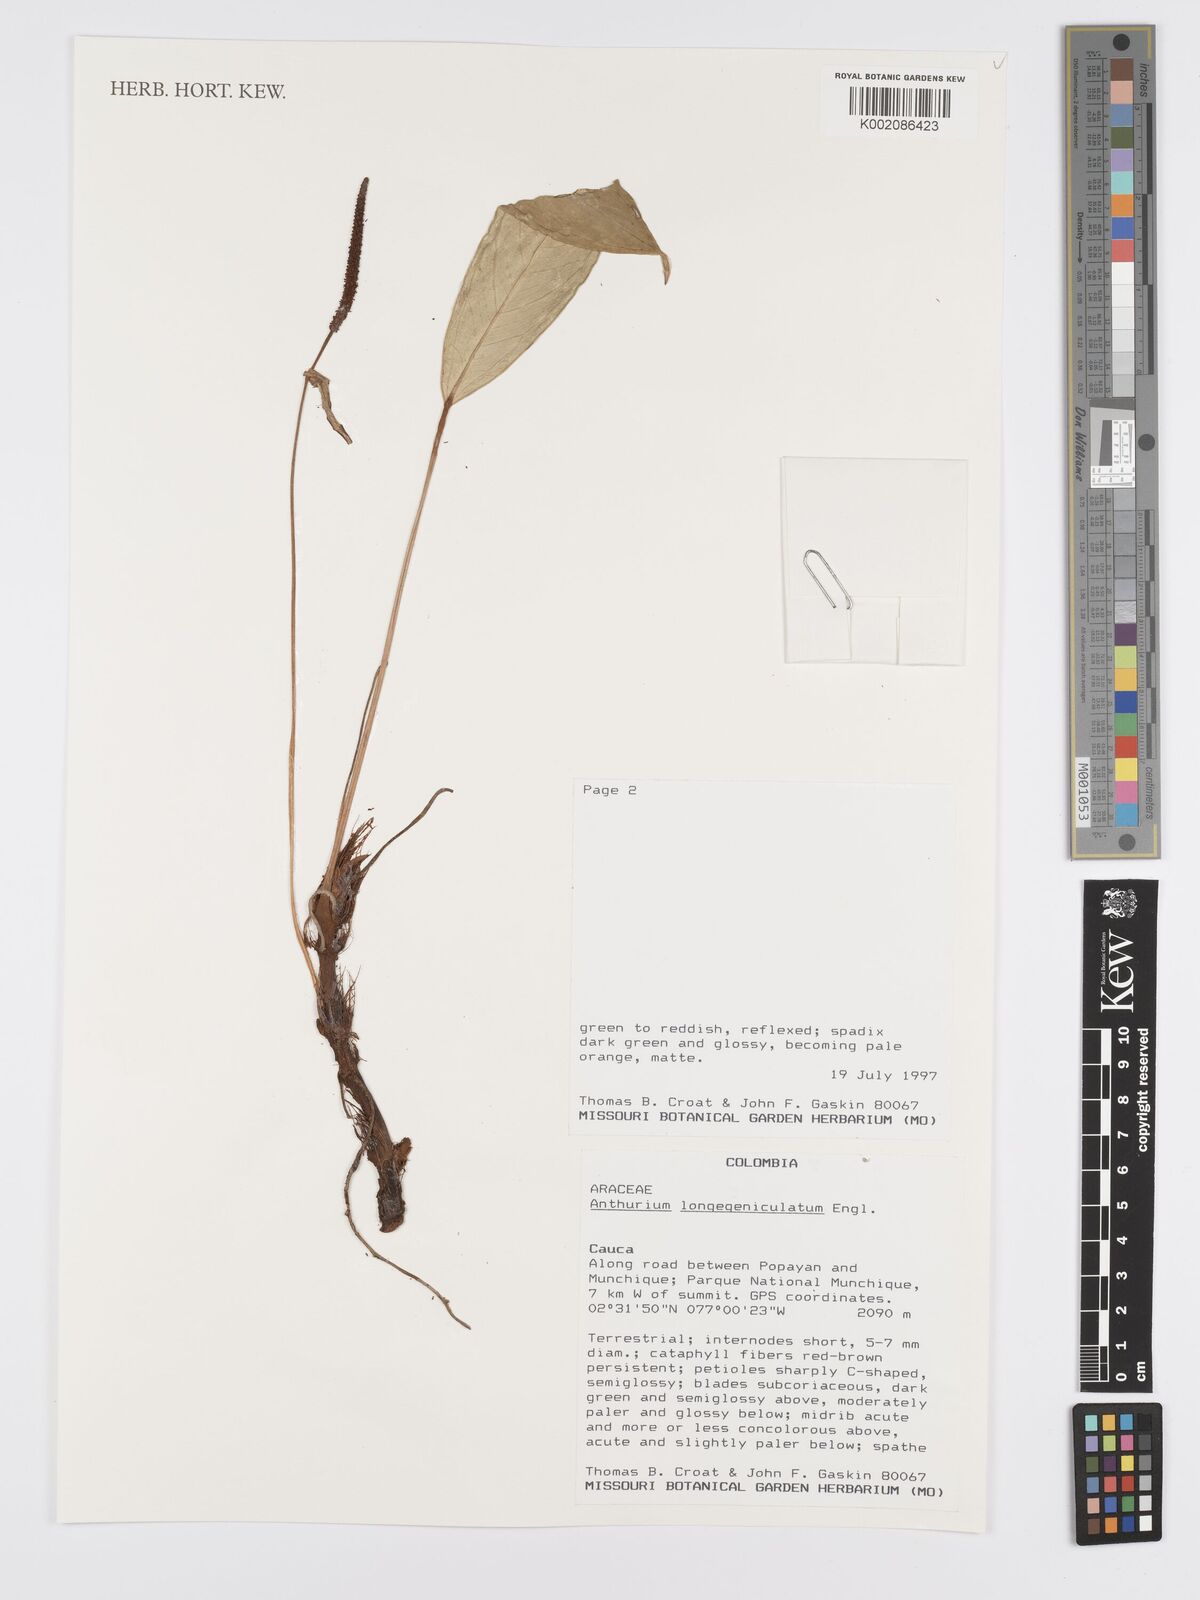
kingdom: Plantae
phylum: Tracheophyta
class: Liliopsida
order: Alismatales
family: Araceae
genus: Anthurium
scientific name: Anthurium longegeniculatum
